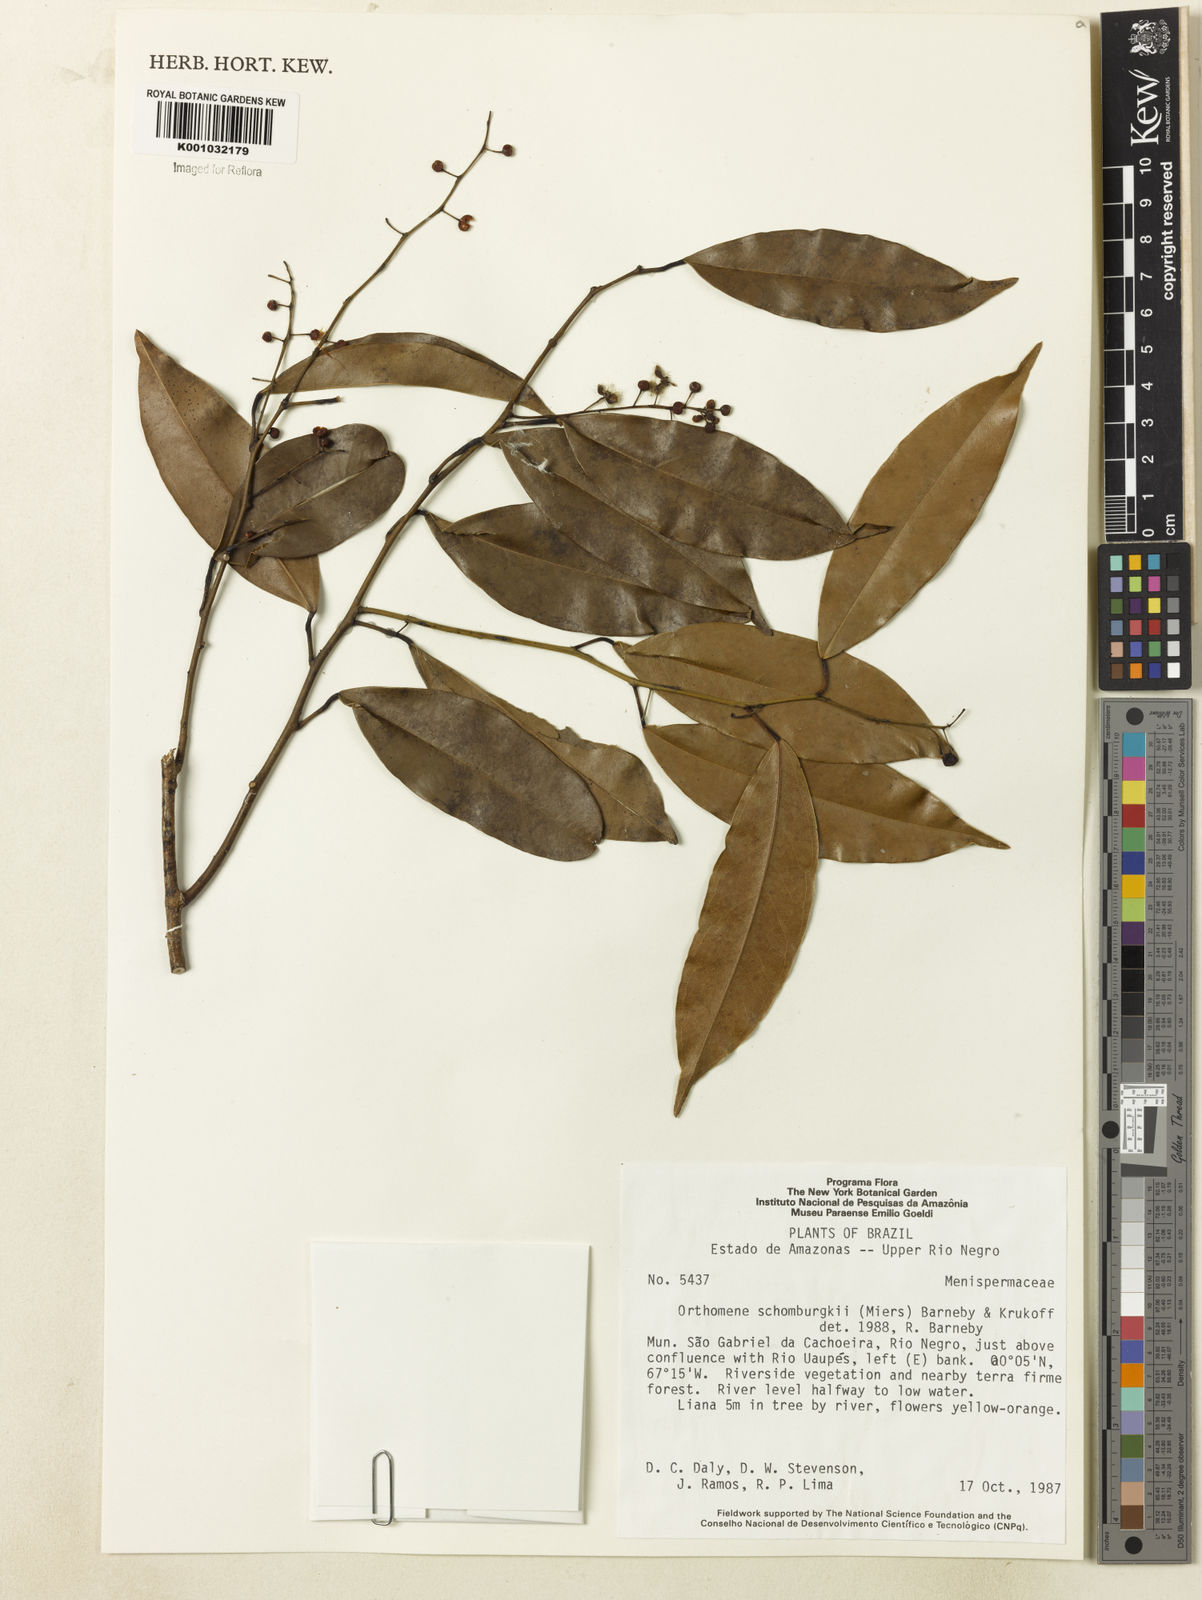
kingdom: Plantae
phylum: Tracheophyta
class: Magnoliopsida
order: Ranunculales
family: Menispermaceae
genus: Orthomene
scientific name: Orthomene schomburgkii
